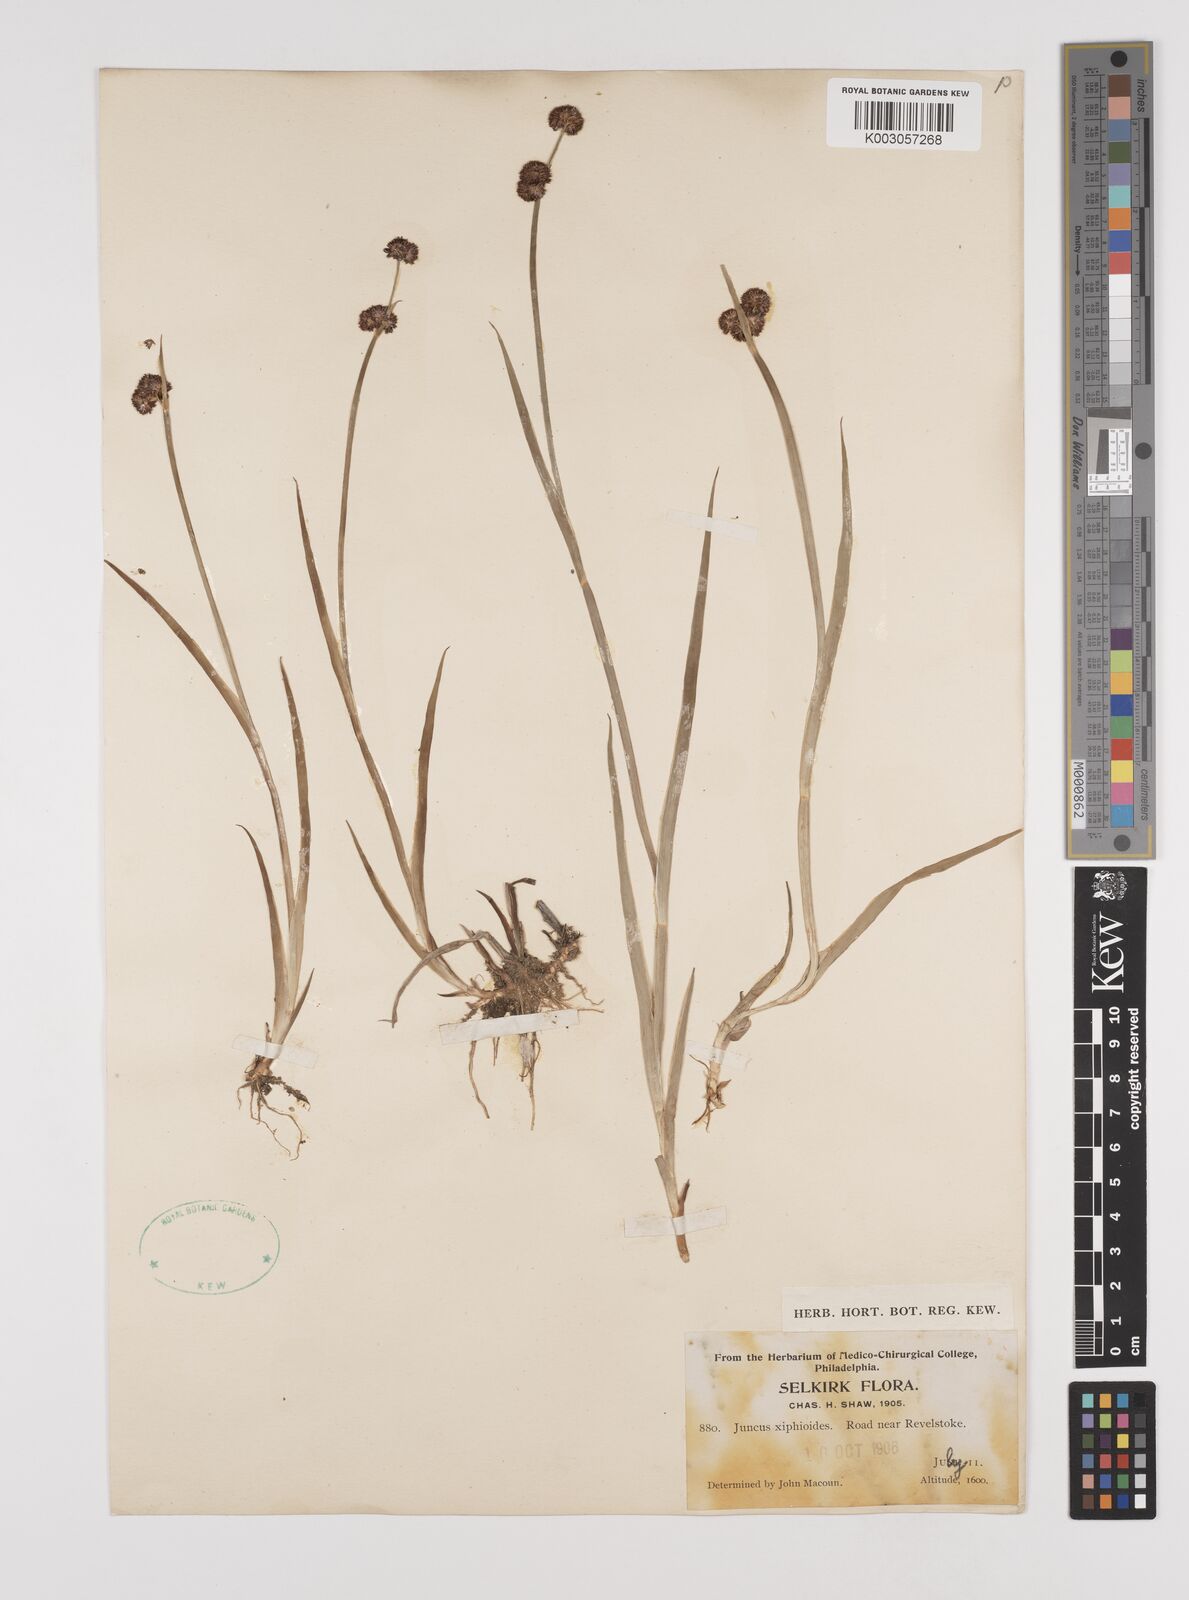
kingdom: Plantae
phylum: Tracheophyta
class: Liliopsida
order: Poales
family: Juncaceae
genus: Juncus
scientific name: Juncus xiphioides
